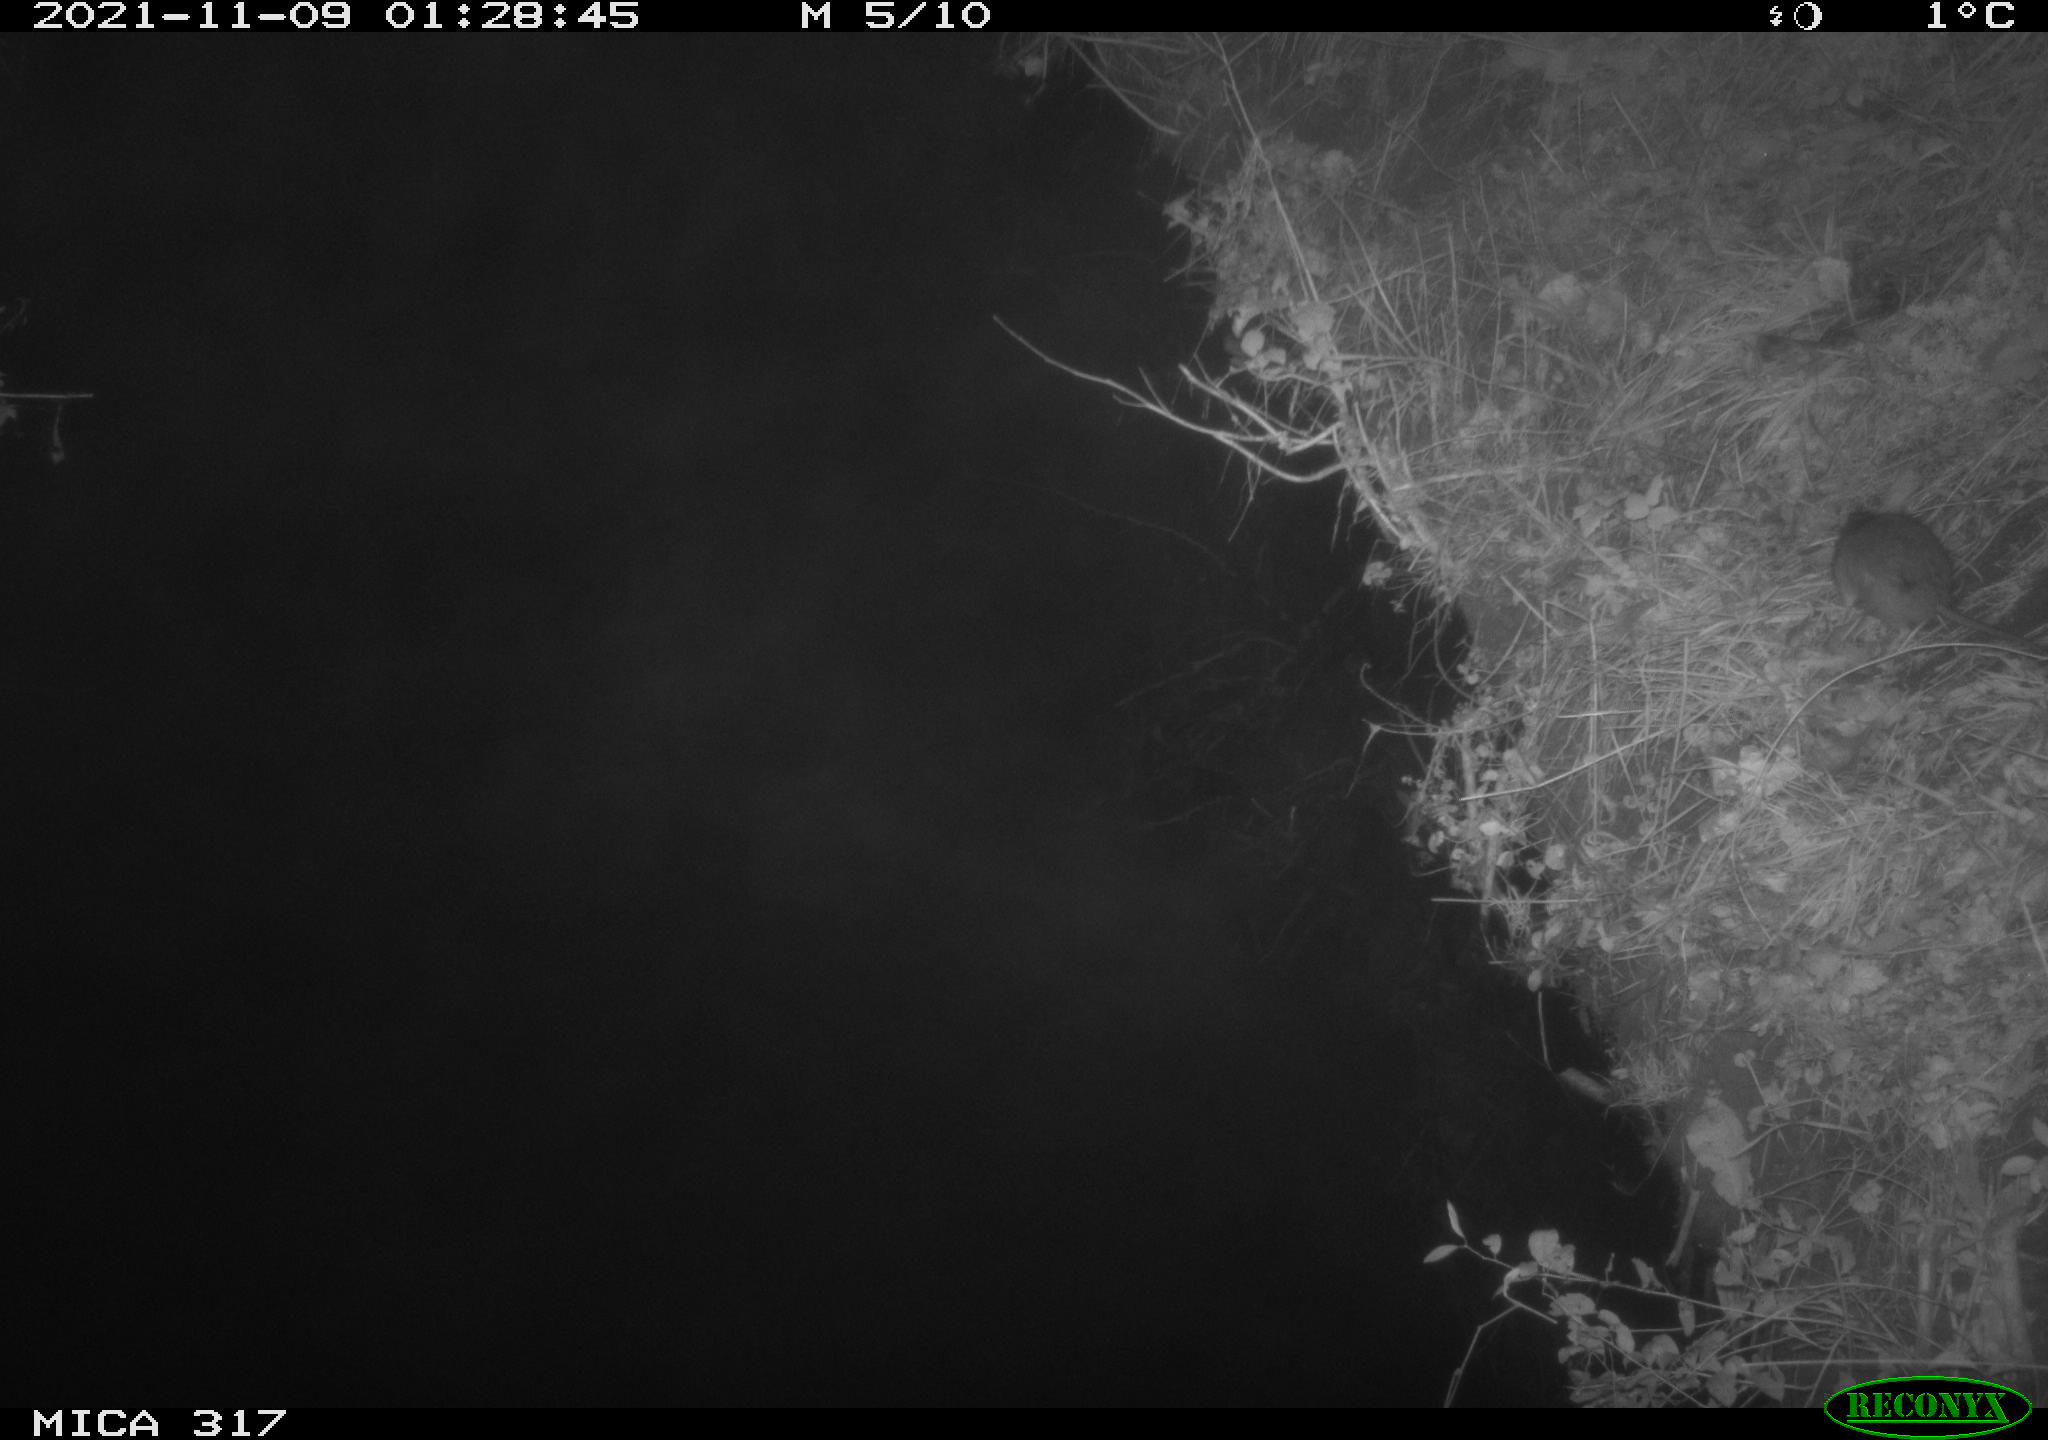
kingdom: Animalia
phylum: Chordata
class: Mammalia
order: Rodentia
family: Muridae
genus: Rattus
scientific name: Rattus norvegicus
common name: Brown rat
